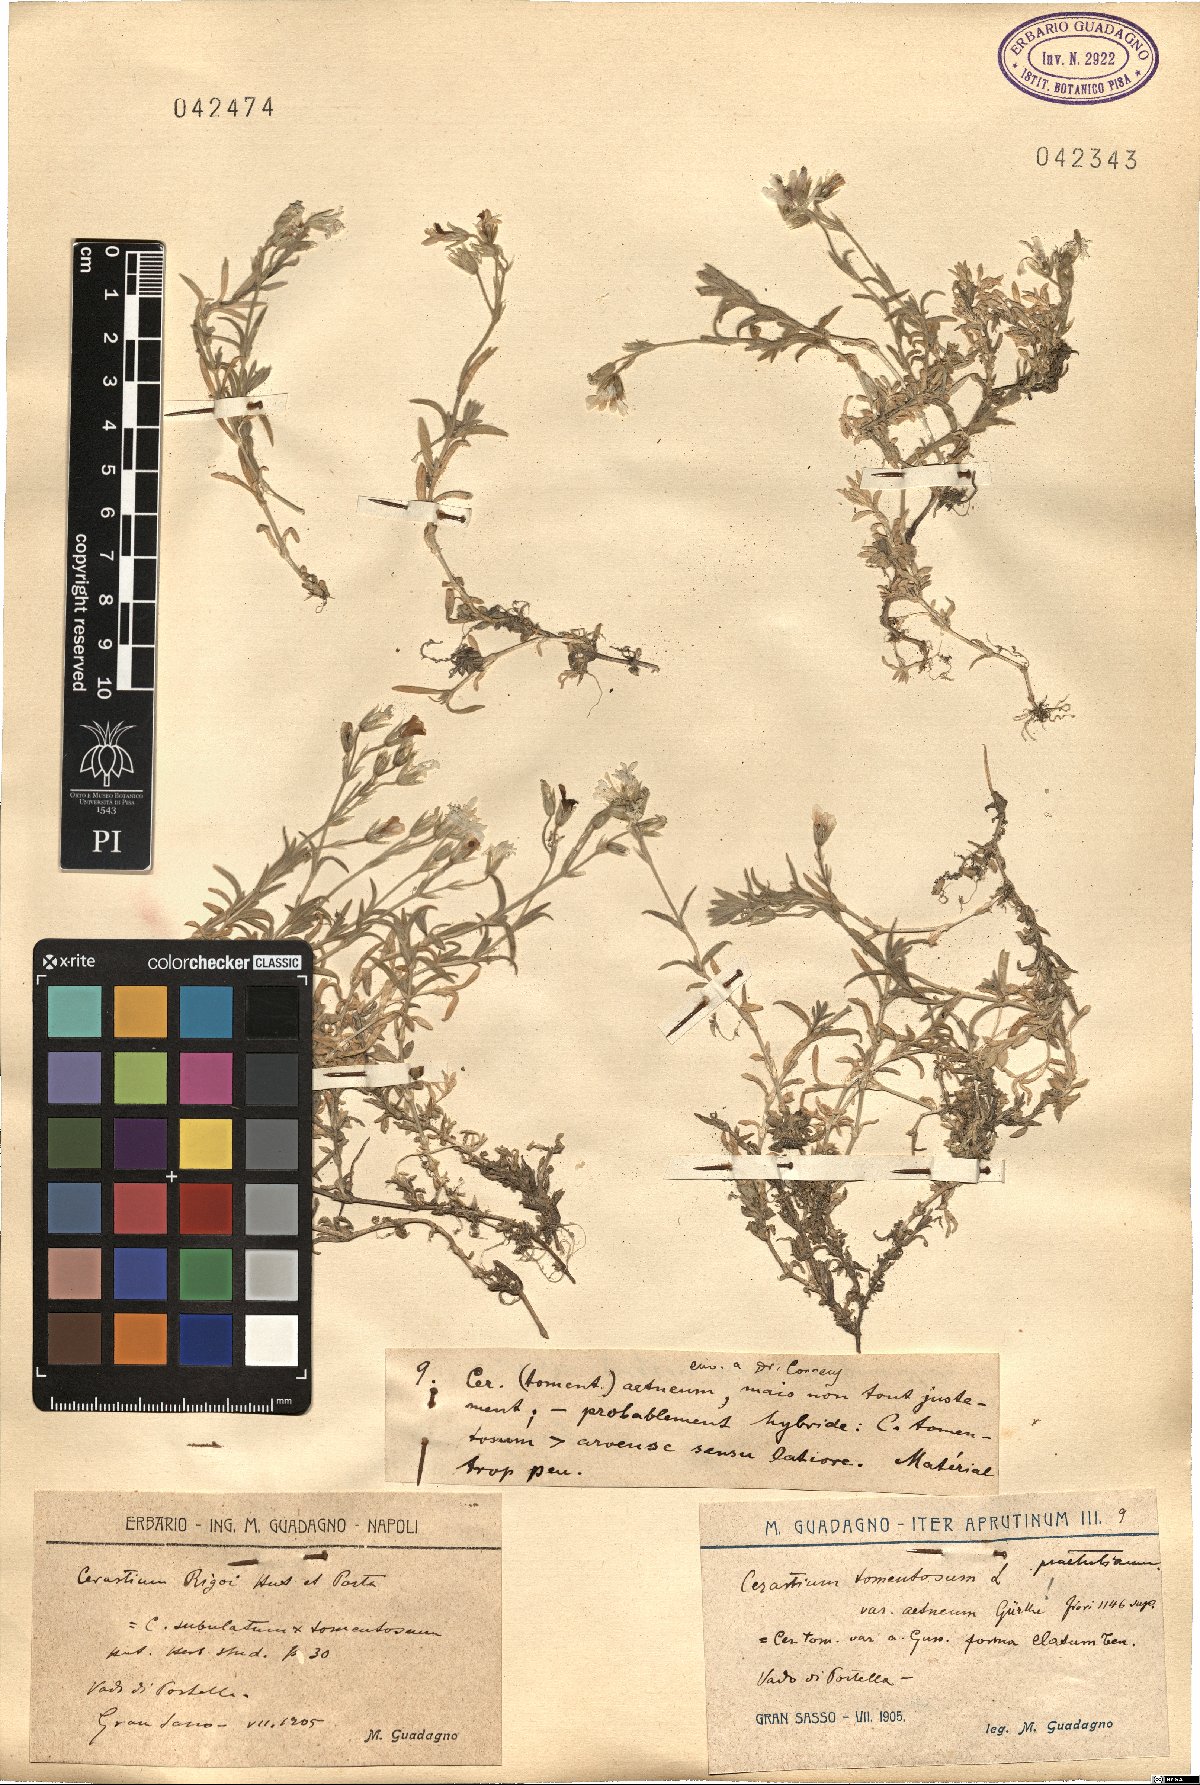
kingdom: Plantae
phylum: Tracheophyta
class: Magnoliopsida
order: Caryophyllales
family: Caryophyllaceae
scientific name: Caryophyllaceae
